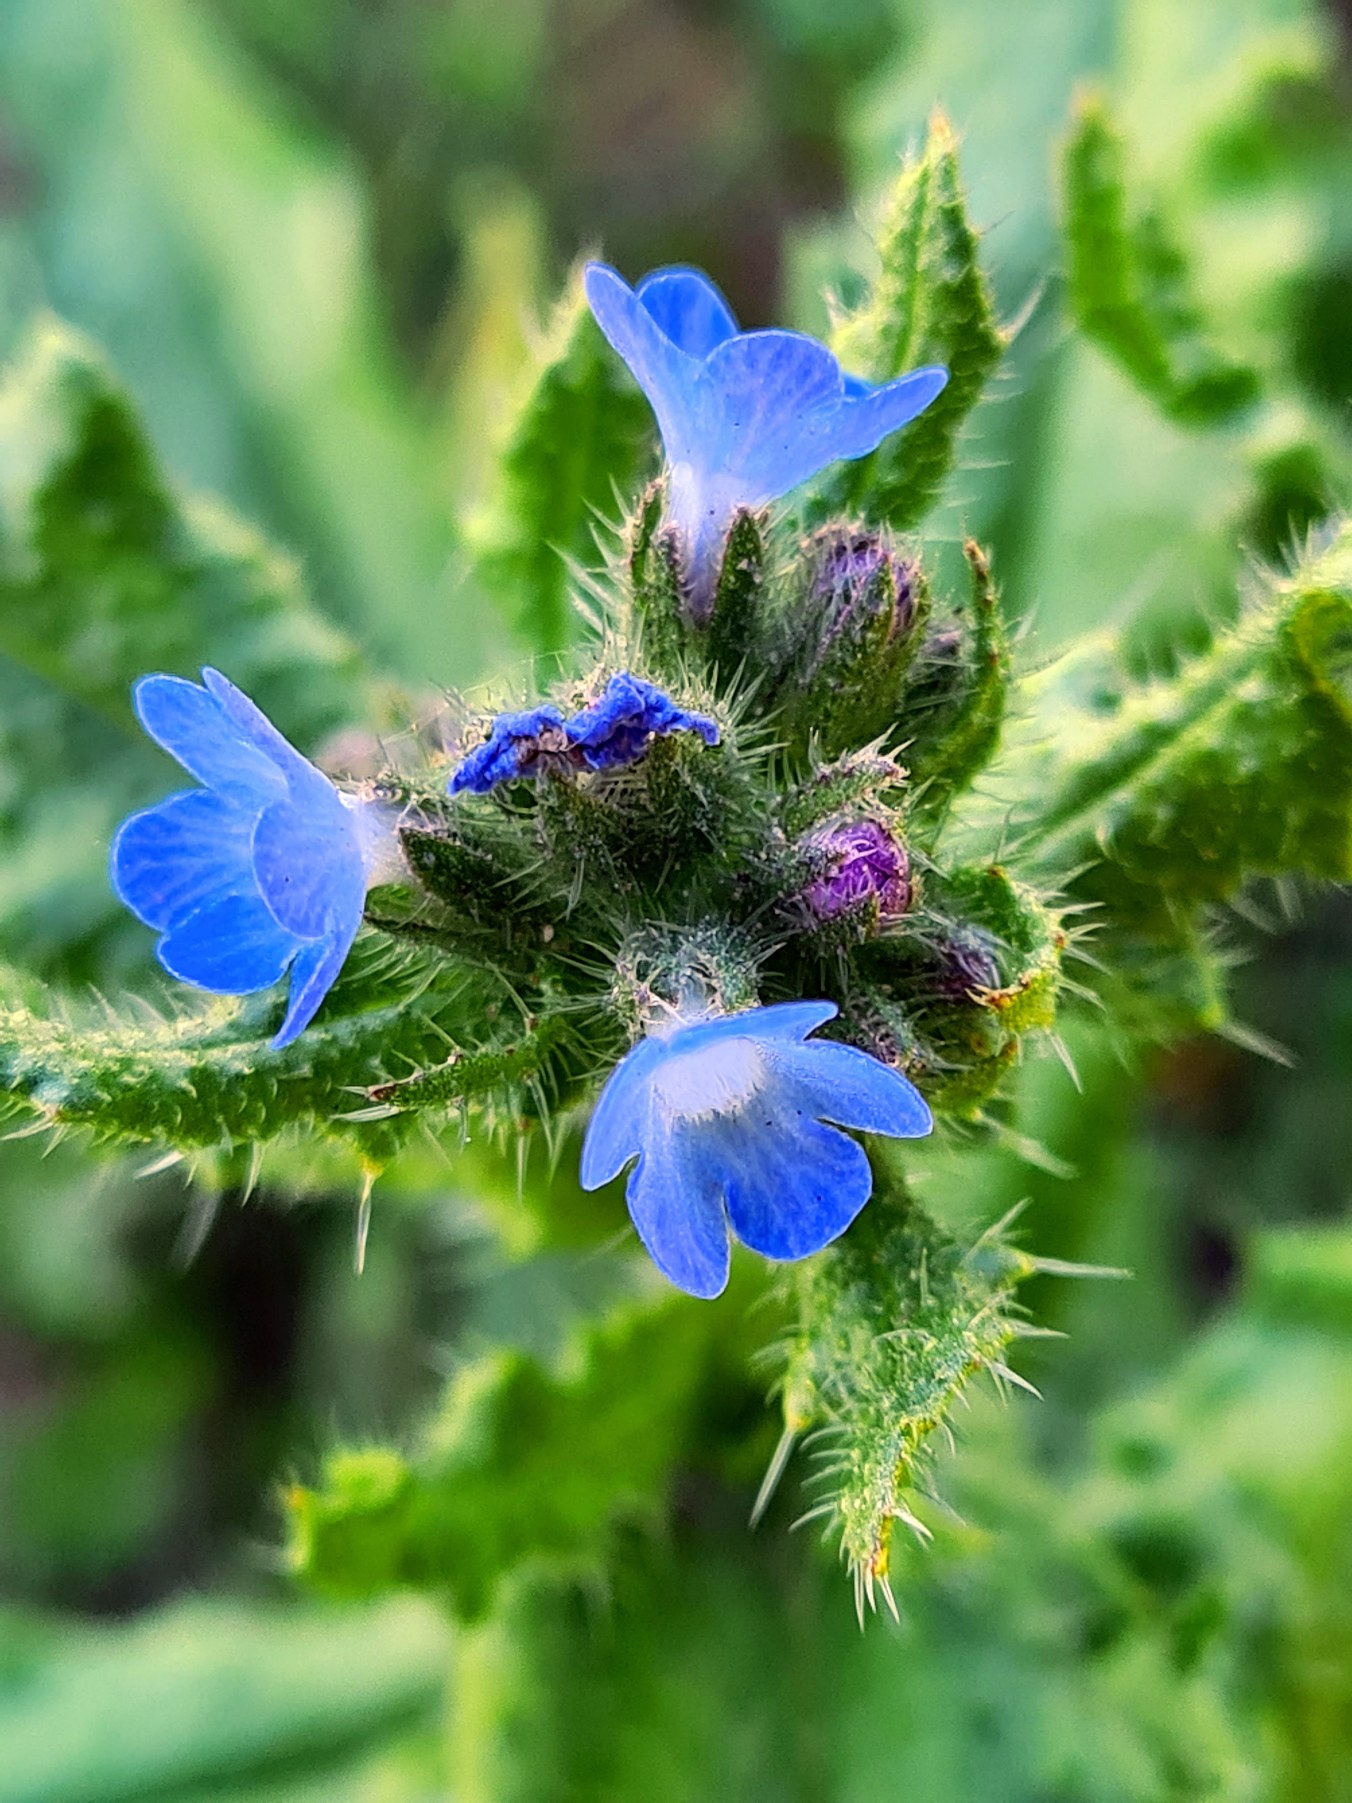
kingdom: Plantae
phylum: Tracheophyta
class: Magnoliopsida
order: Boraginales
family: Boraginaceae
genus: Lycopsis
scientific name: Lycopsis arvensis
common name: Krumhals
